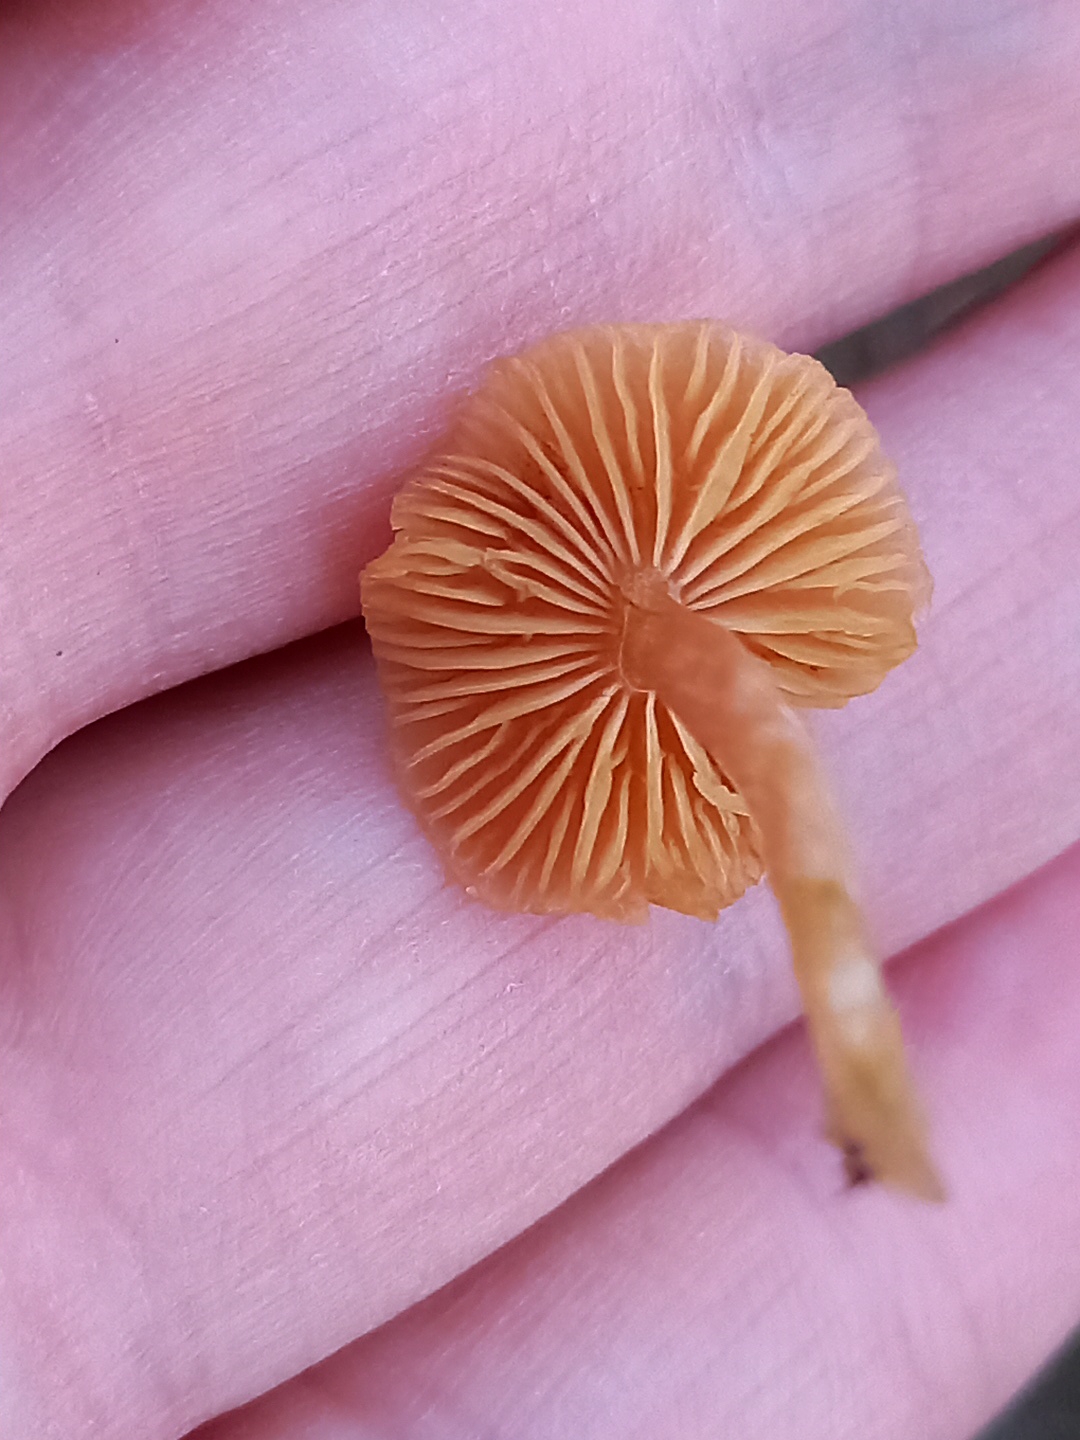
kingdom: Fungi
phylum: Basidiomycota
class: Agaricomycetes
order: Agaricales
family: Hymenogastraceae
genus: Galerina
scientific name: Galerina
